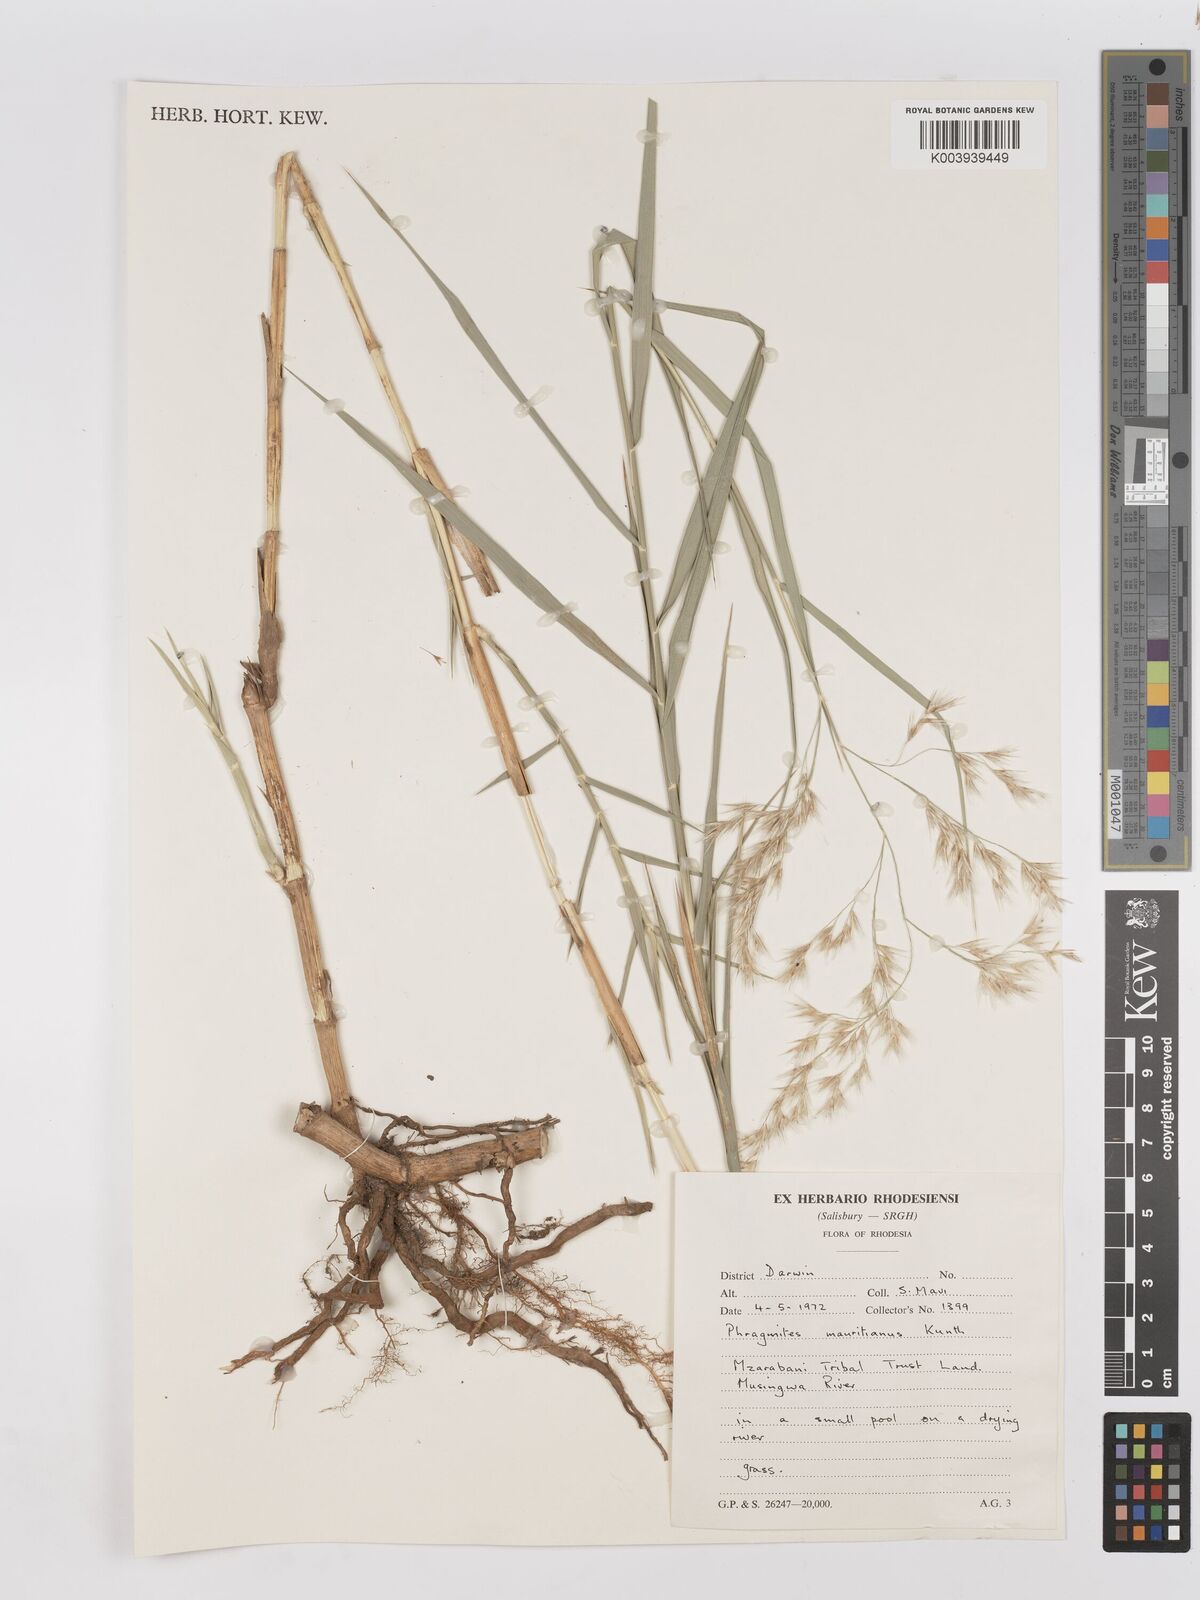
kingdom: Plantae
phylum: Tracheophyta
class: Liliopsida
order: Poales
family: Poaceae
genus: Phragmites
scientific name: Phragmites mauritianus
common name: Reed grass
